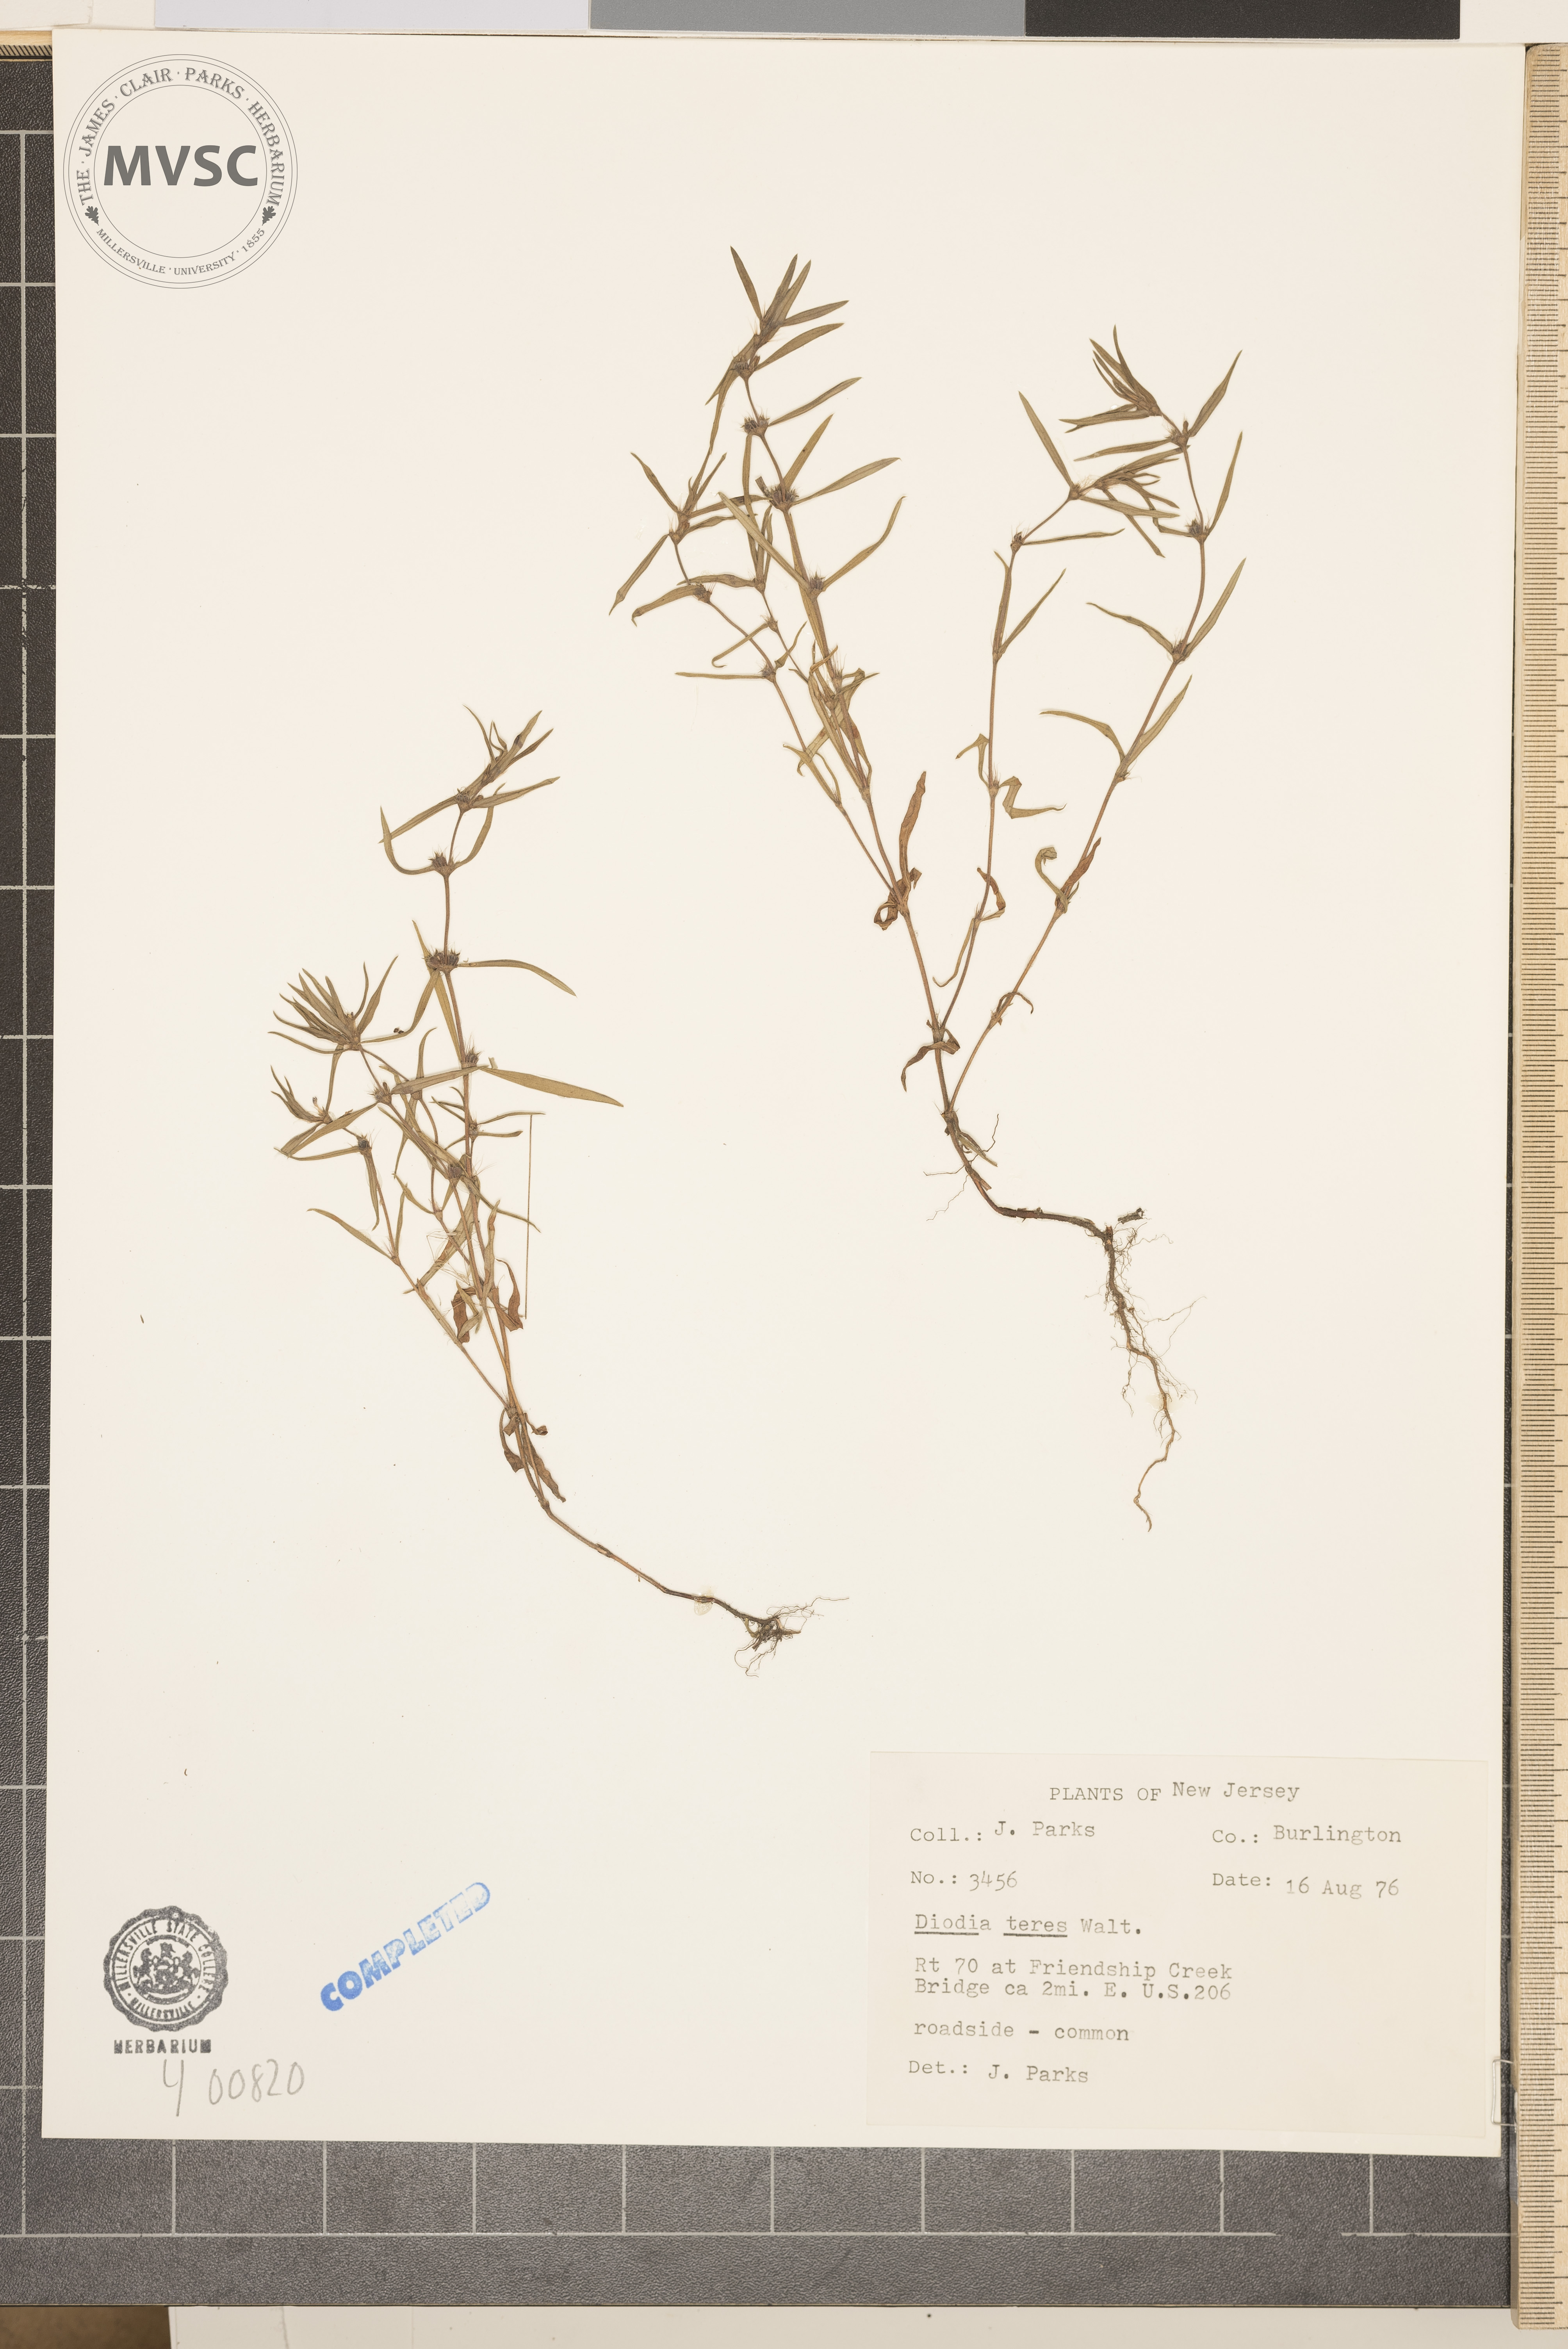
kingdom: Plantae
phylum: Tracheophyta
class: Magnoliopsida
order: Gentianales
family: Rubiaceae
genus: Hexasepalum
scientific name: Hexasepalum teres
